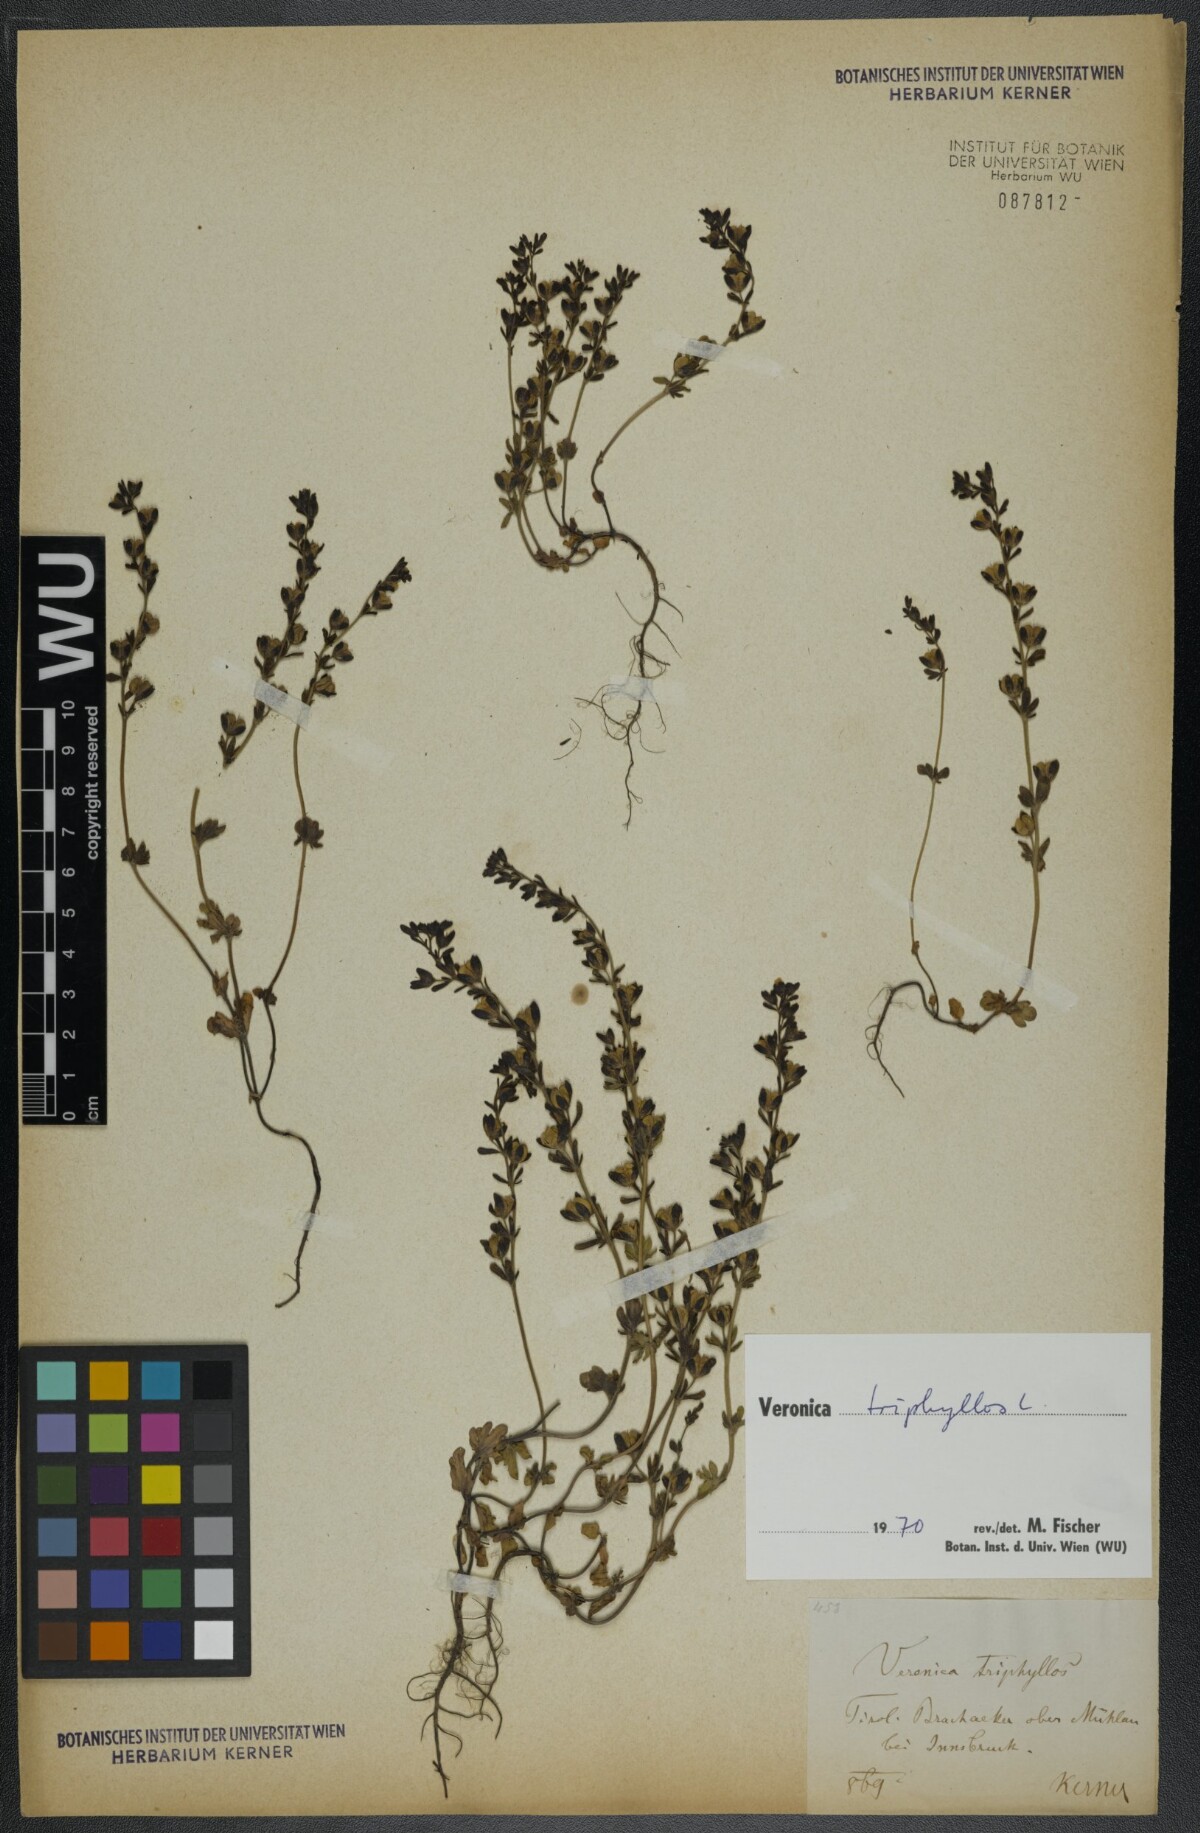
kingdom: Plantae
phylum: Tracheophyta
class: Magnoliopsida
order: Lamiales
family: Plantaginaceae
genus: Veronica
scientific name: Veronica triphyllos
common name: Fingered speedwell
